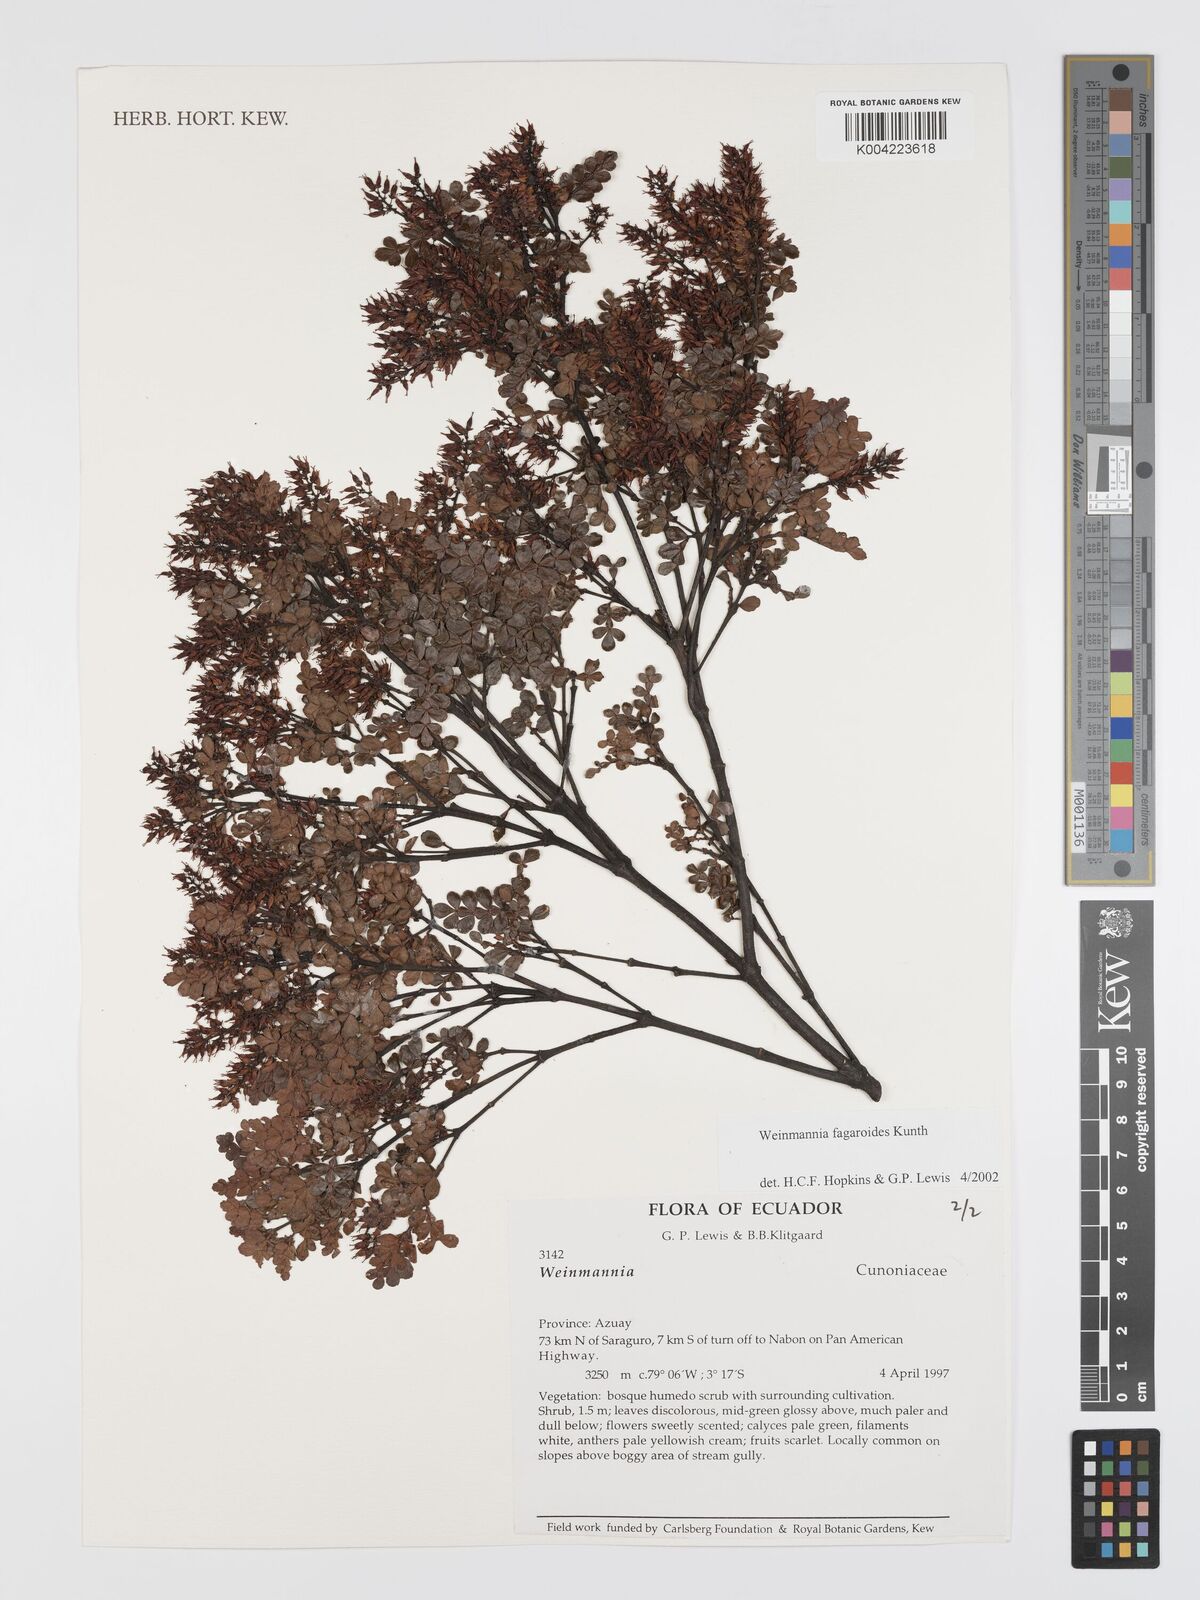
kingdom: Plantae
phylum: Tracheophyta
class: Magnoliopsida
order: Oxalidales
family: Cunoniaceae
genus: Weinmannia
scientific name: Weinmannia fagaroides
